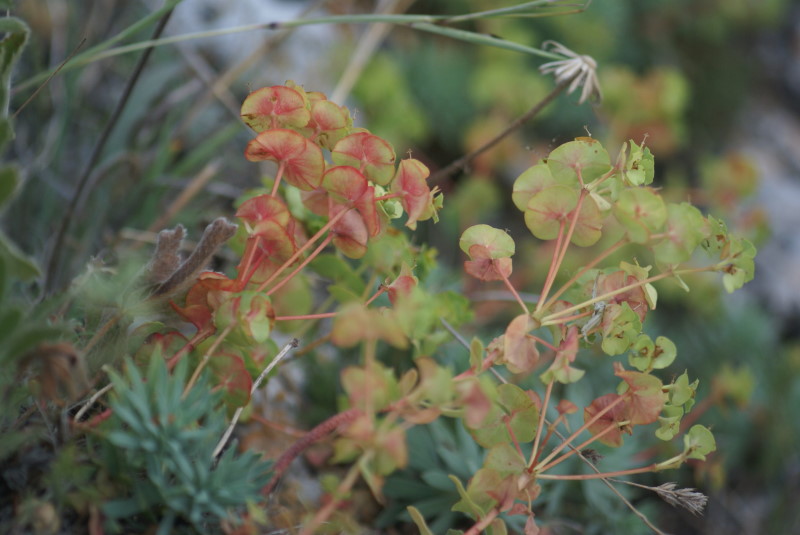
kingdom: Plantae
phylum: Tracheophyta
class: Magnoliopsida
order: Malpighiales
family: Euphorbiaceae
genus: Euphorbia
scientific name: Euphorbia petrophila
